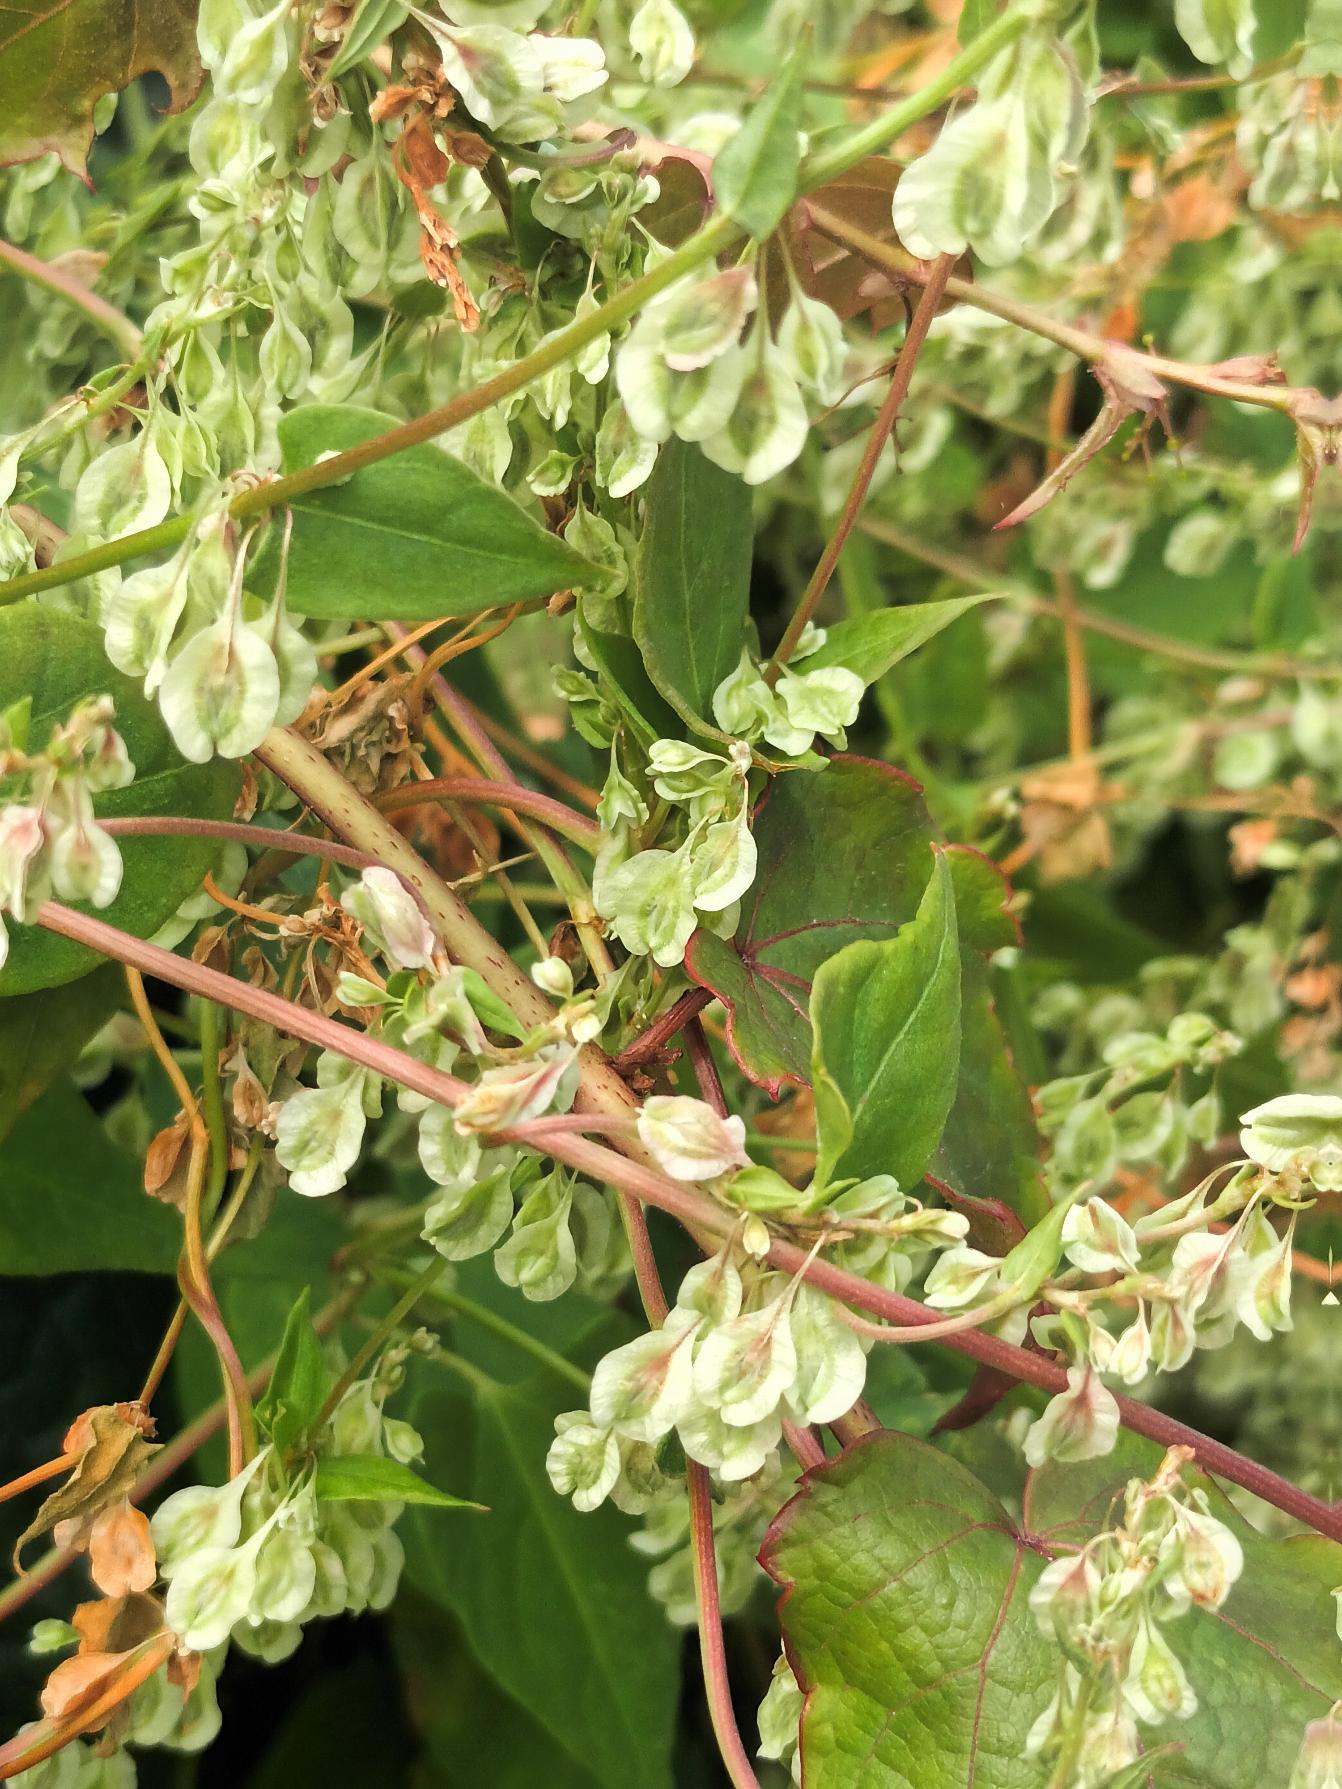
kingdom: Plantae
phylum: Tracheophyta
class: Magnoliopsida
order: Caryophyllales
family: Polygonaceae
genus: Fallopia
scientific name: Fallopia dumetorum
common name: Vinge-pileurt
